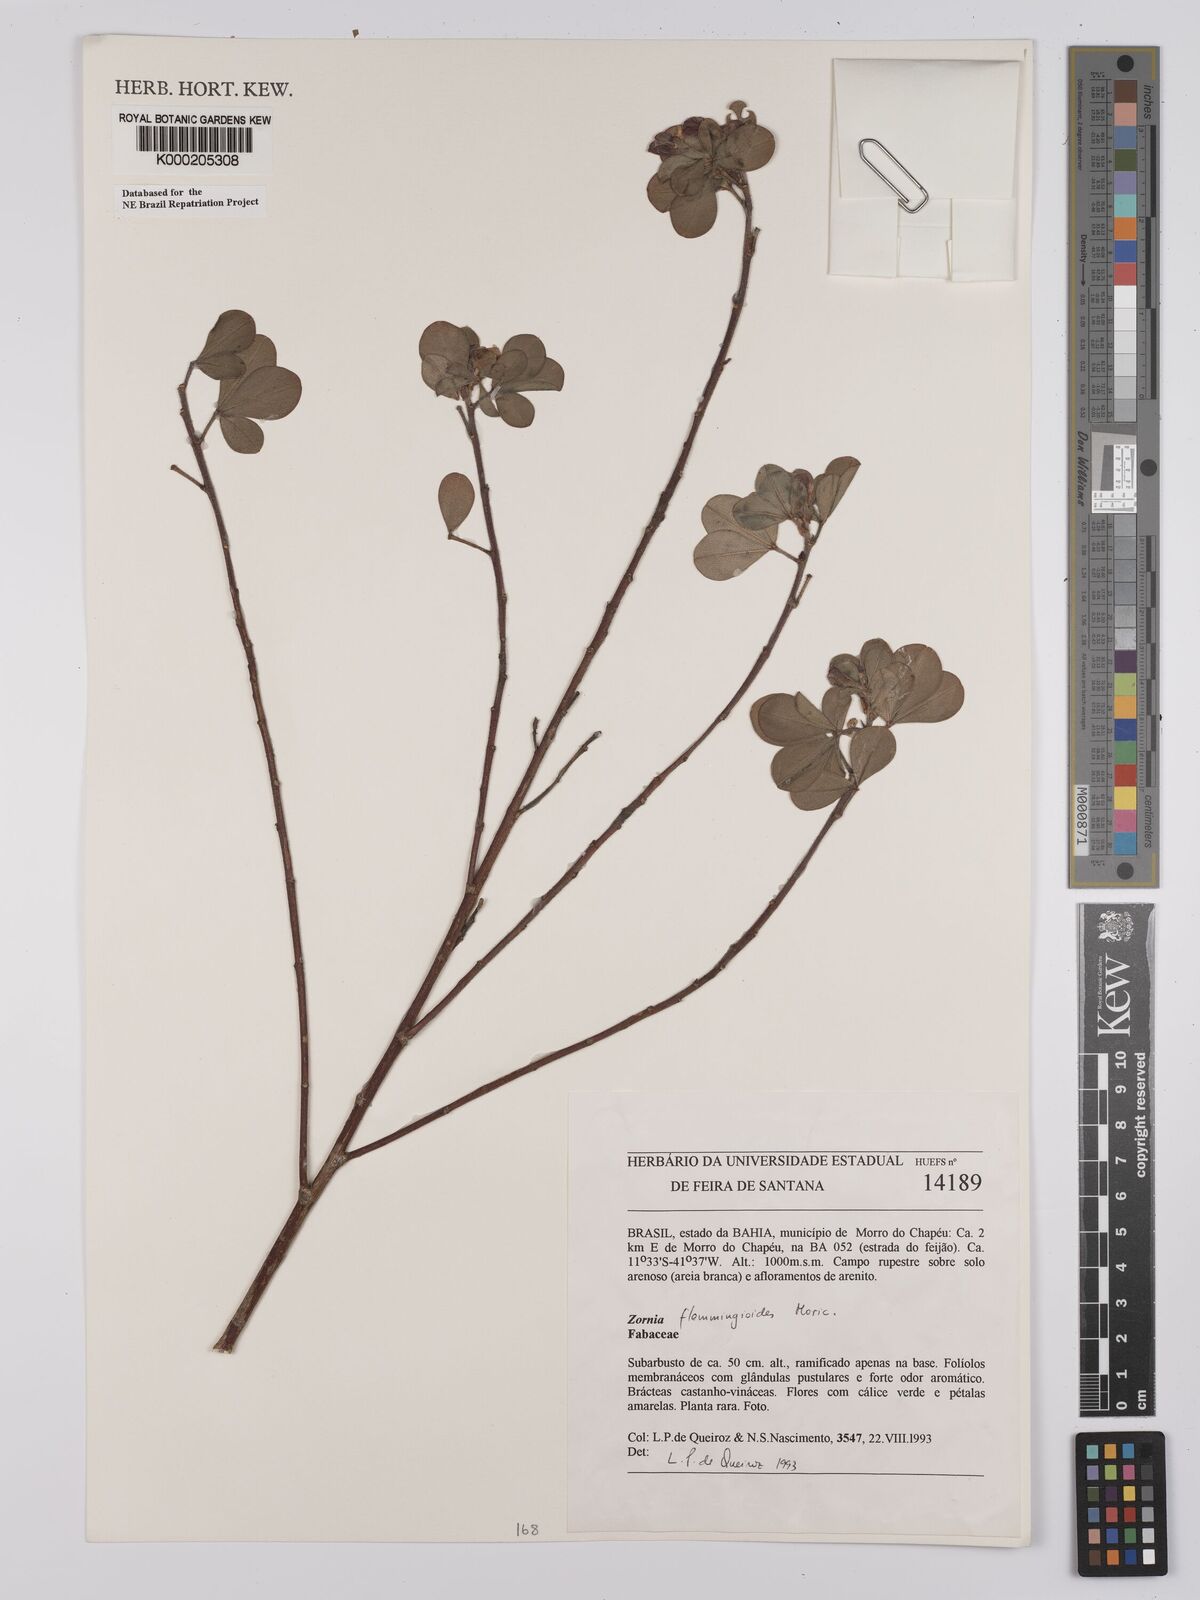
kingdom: Plantae
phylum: Tracheophyta
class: Magnoliopsida
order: Fabales
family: Fabaceae
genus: Zornia
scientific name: Zornia flemmingioides
